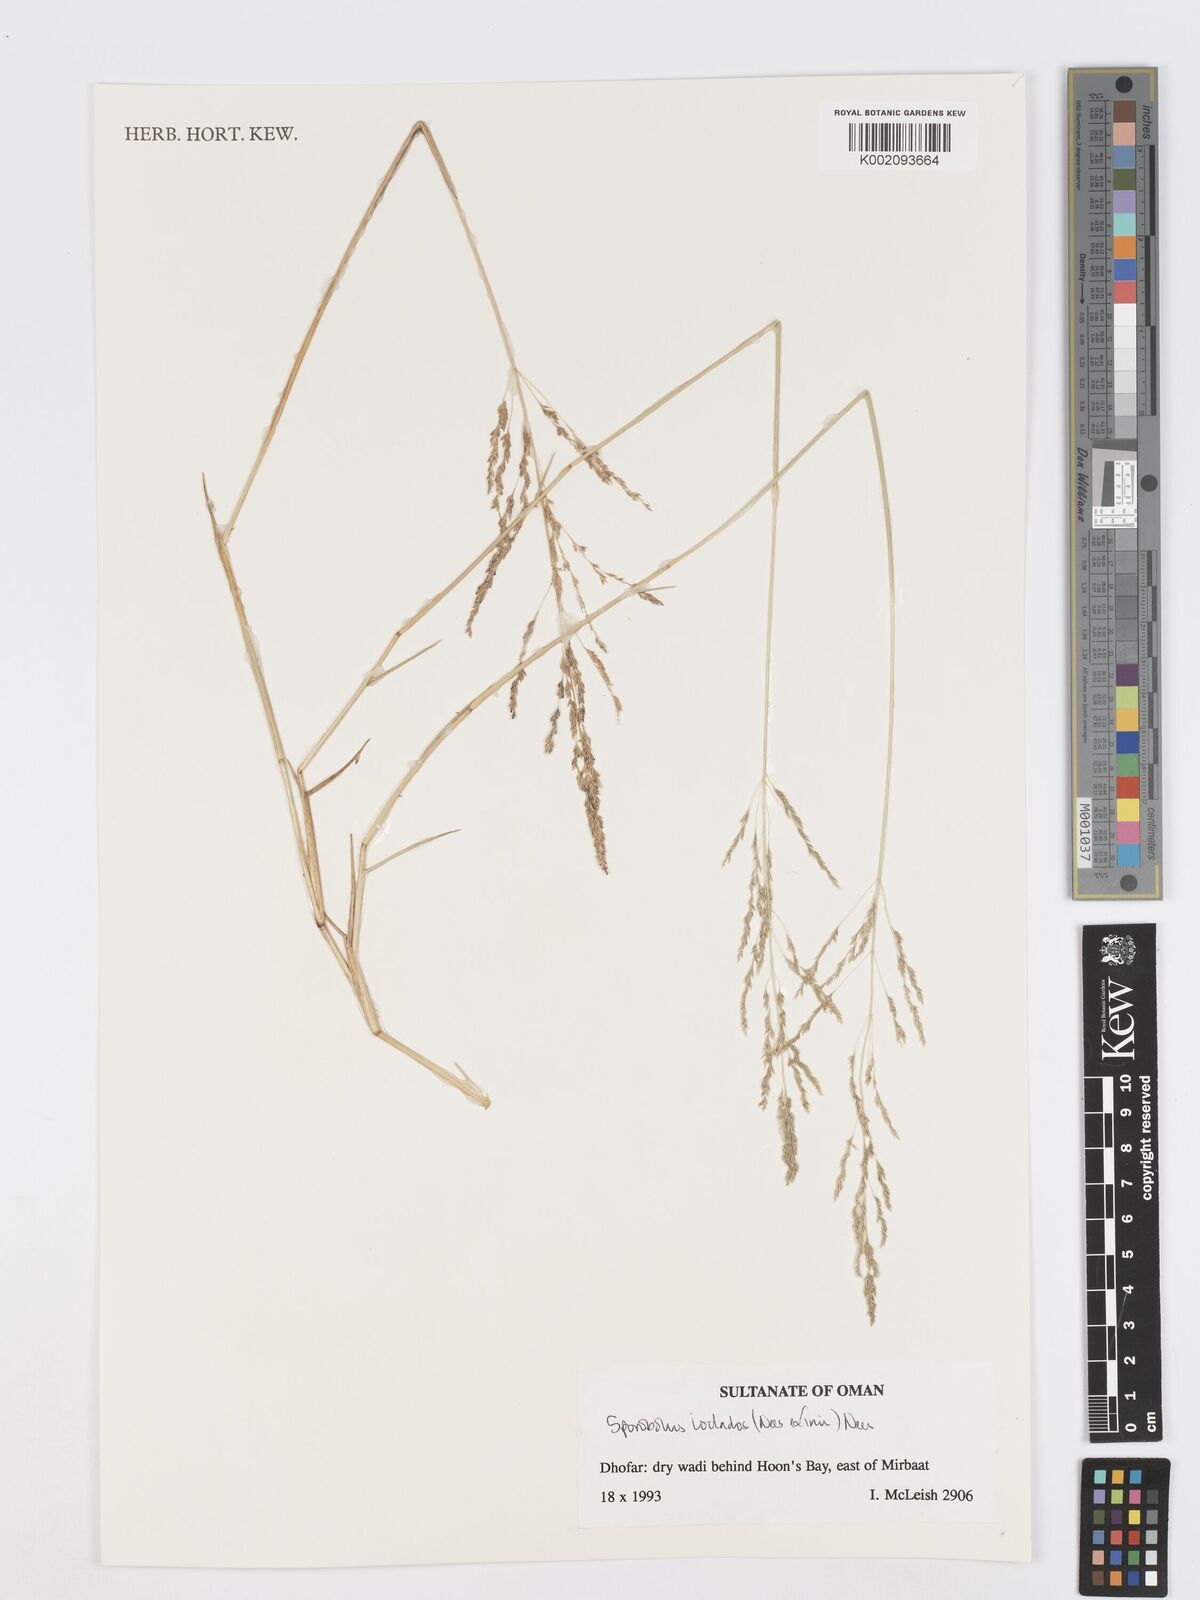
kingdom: Plantae
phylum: Tracheophyta
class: Liliopsida
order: Poales
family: Poaceae
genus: Sporobolus
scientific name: Sporobolus ioclados
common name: Pan dropseed
